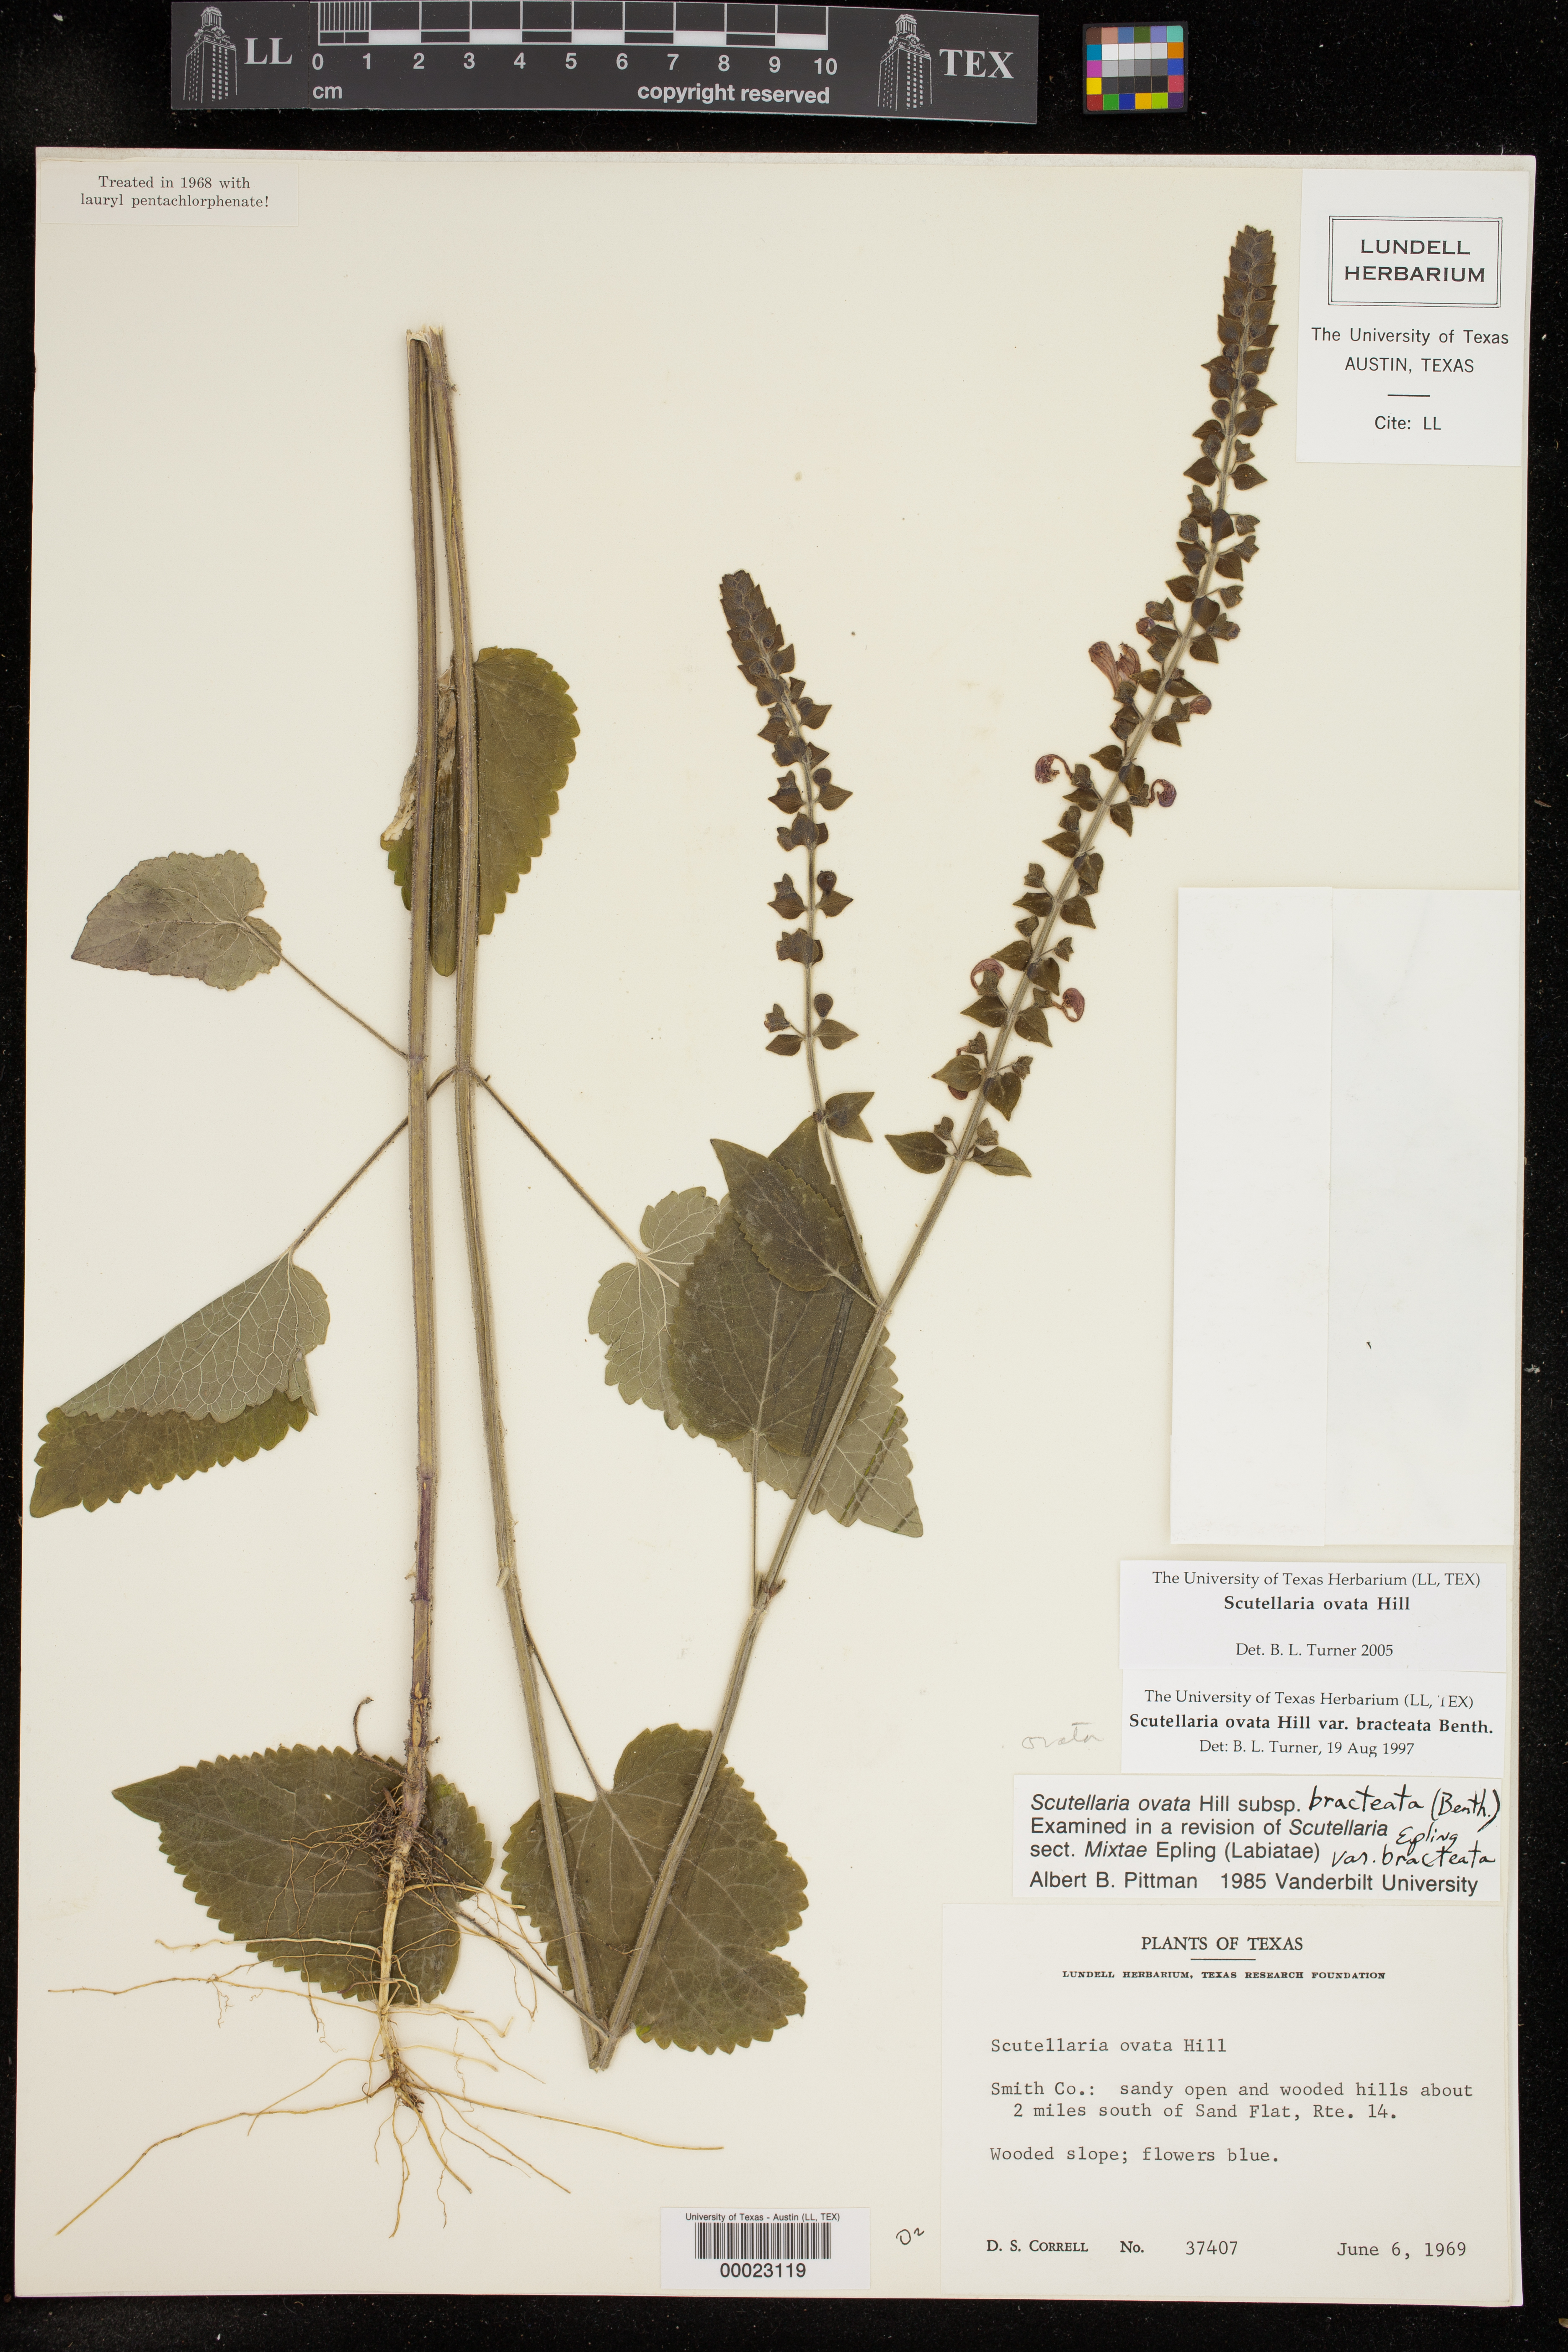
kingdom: Plantae
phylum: Tracheophyta
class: Magnoliopsida
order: Lamiales
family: Lamiaceae
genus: Scutellaria
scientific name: Scutellaria ovata
